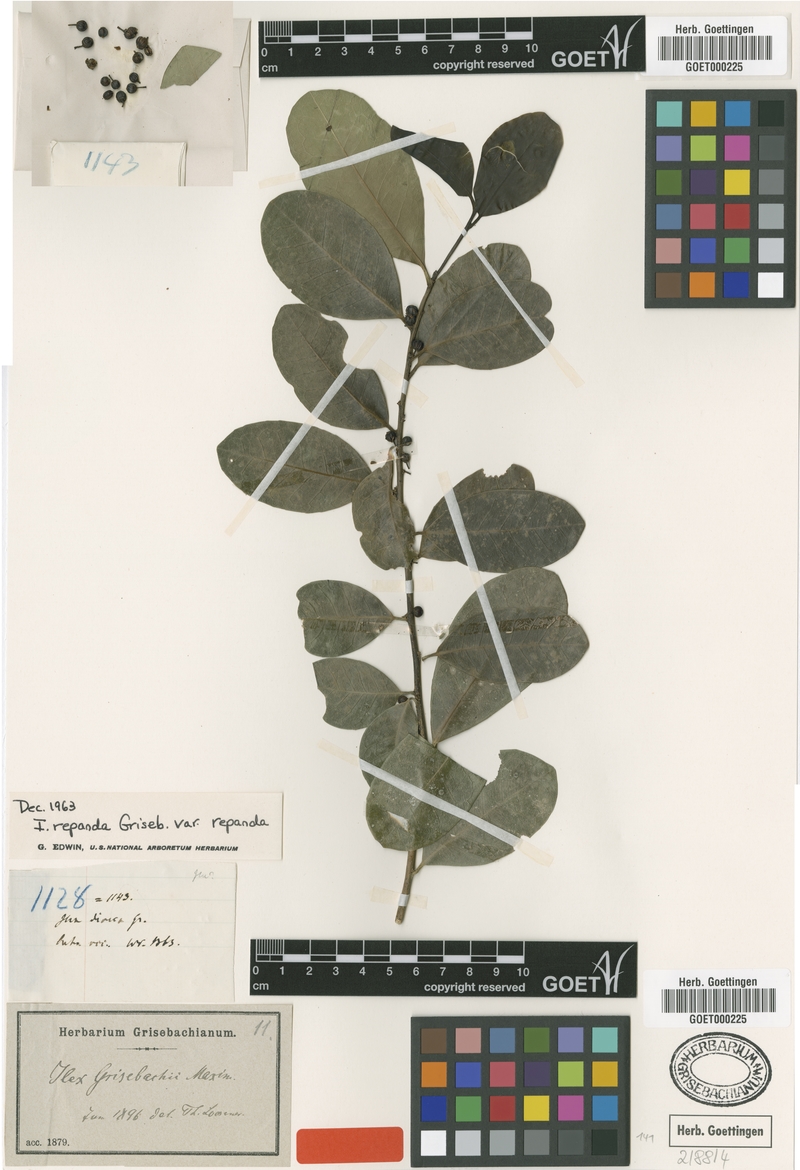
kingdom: Plantae
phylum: Tracheophyta
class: Magnoliopsida
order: Aquifoliales
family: Aquifoliaceae
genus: Ilex
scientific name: Ilex nitida
